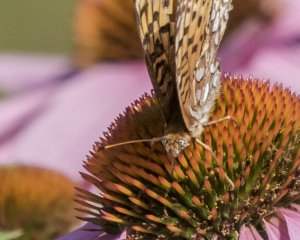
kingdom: Animalia
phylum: Arthropoda
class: Insecta
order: Lepidoptera
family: Nymphalidae
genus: Speyeria
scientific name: Speyeria atlantis
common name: Atlantis Fritillary
